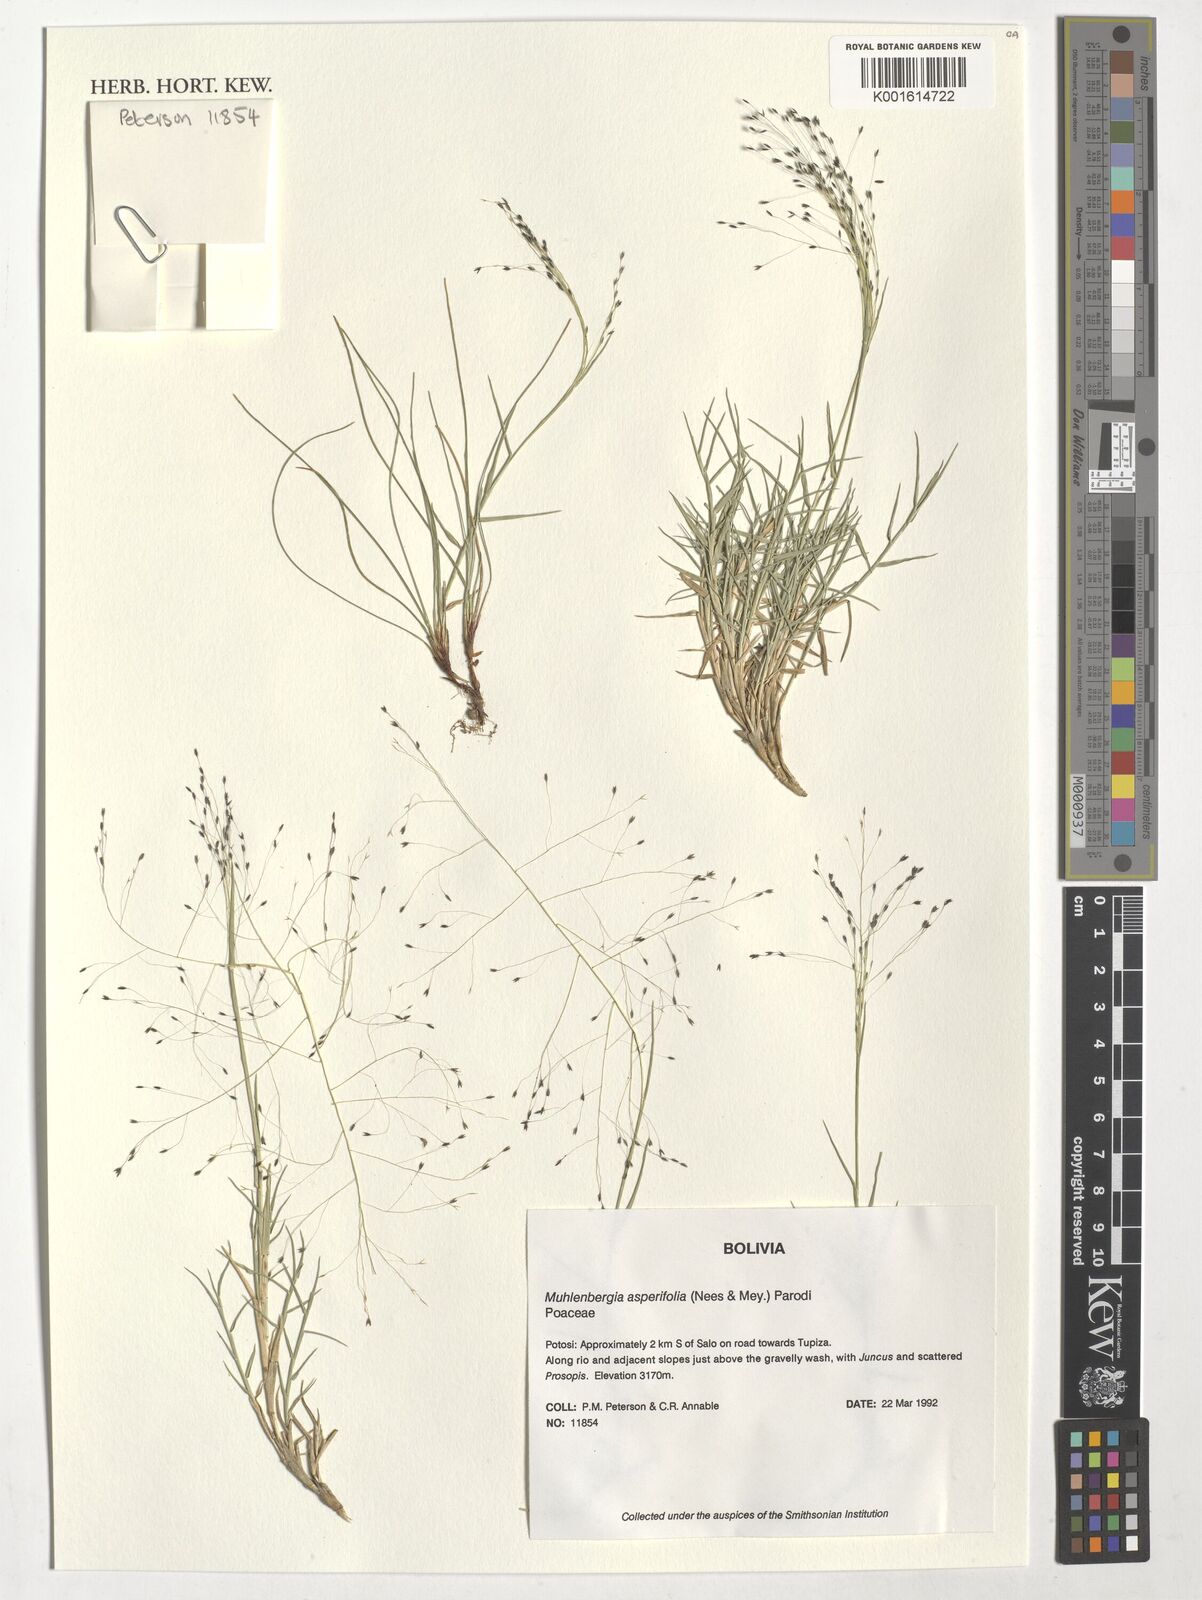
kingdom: Plantae
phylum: Tracheophyta
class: Liliopsida
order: Poales
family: Poaceae
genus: Muhlenbergia
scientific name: Muhlenbergia asperifolia
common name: Alkali muhly
